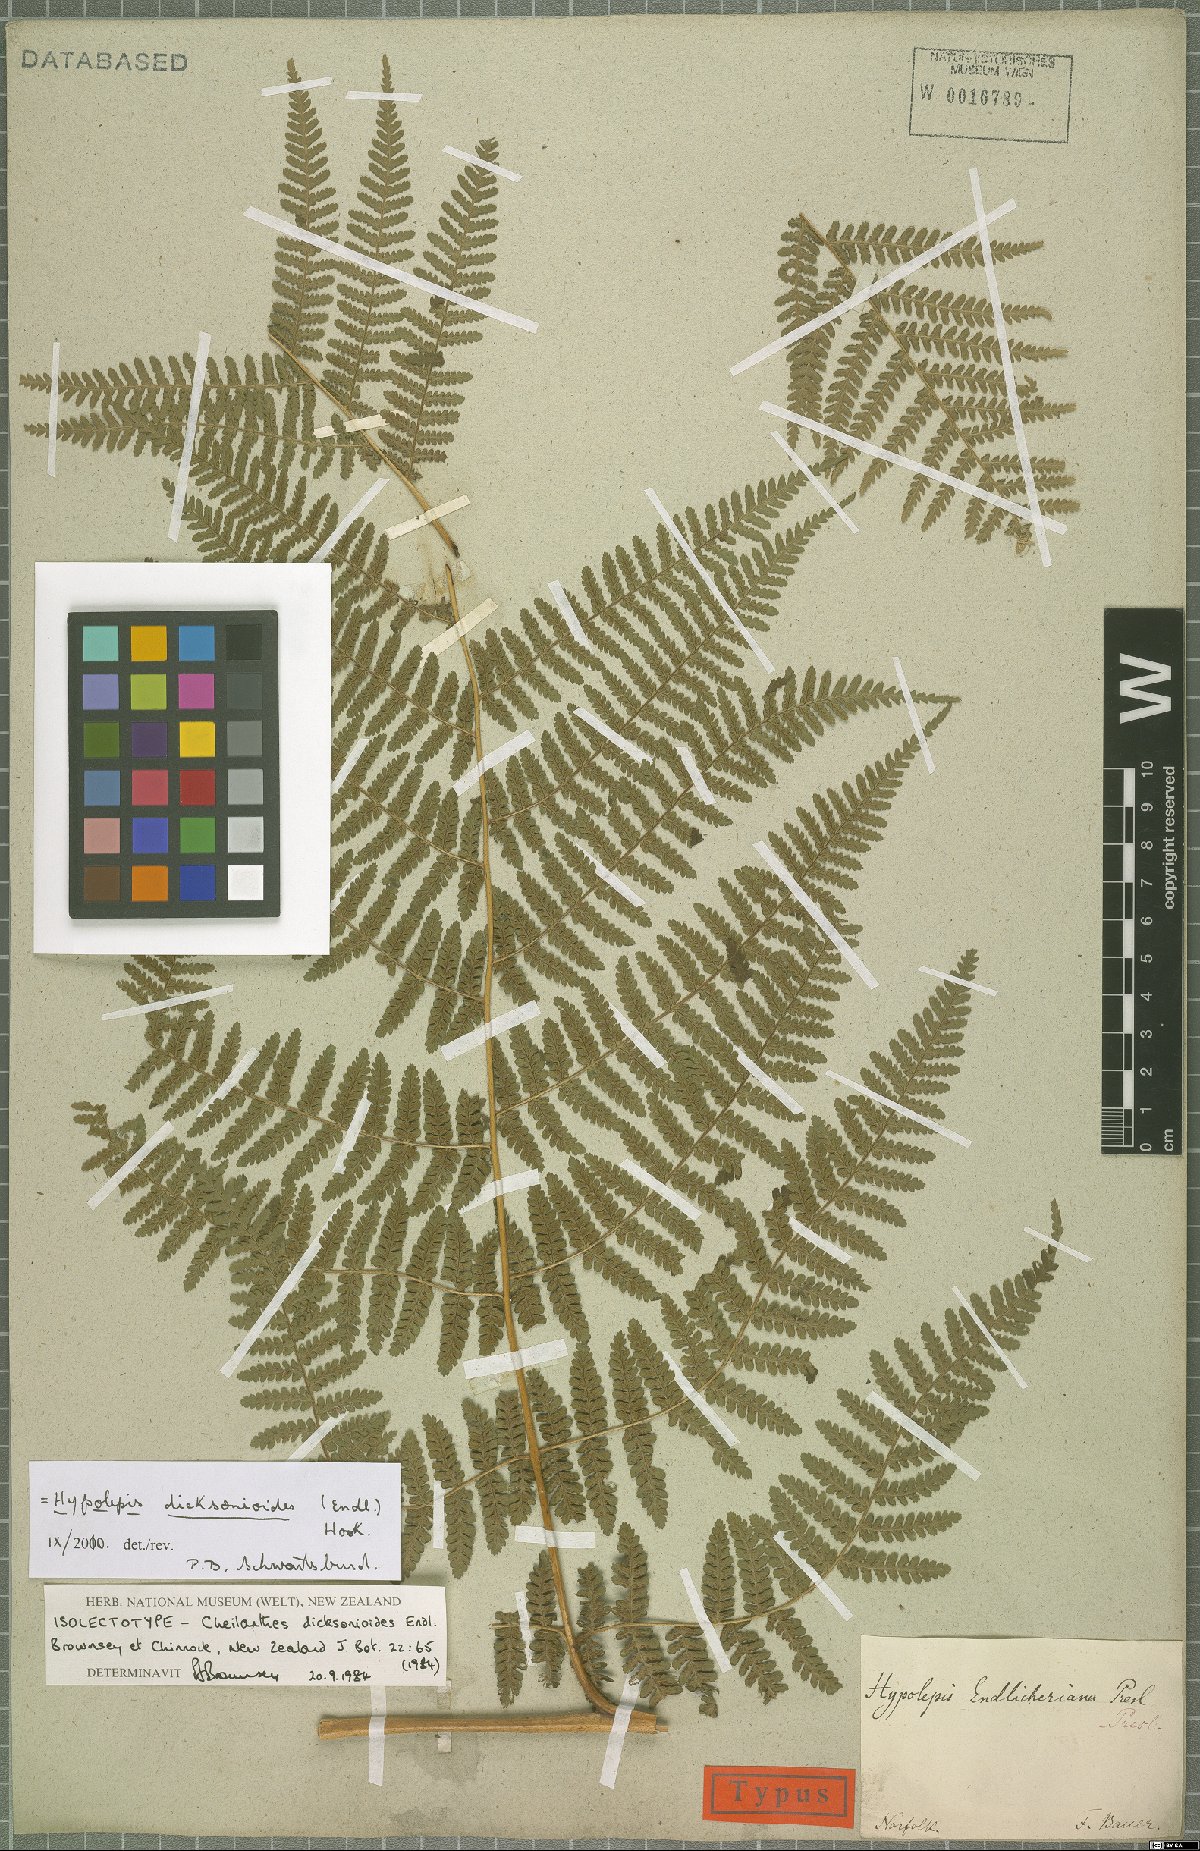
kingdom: Plantae
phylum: Tracheophyta
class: Polypodiopsida
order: Polypodiales
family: Dennstaedtiaceae
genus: Hypolepis
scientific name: Hypolepis dicksonioides
